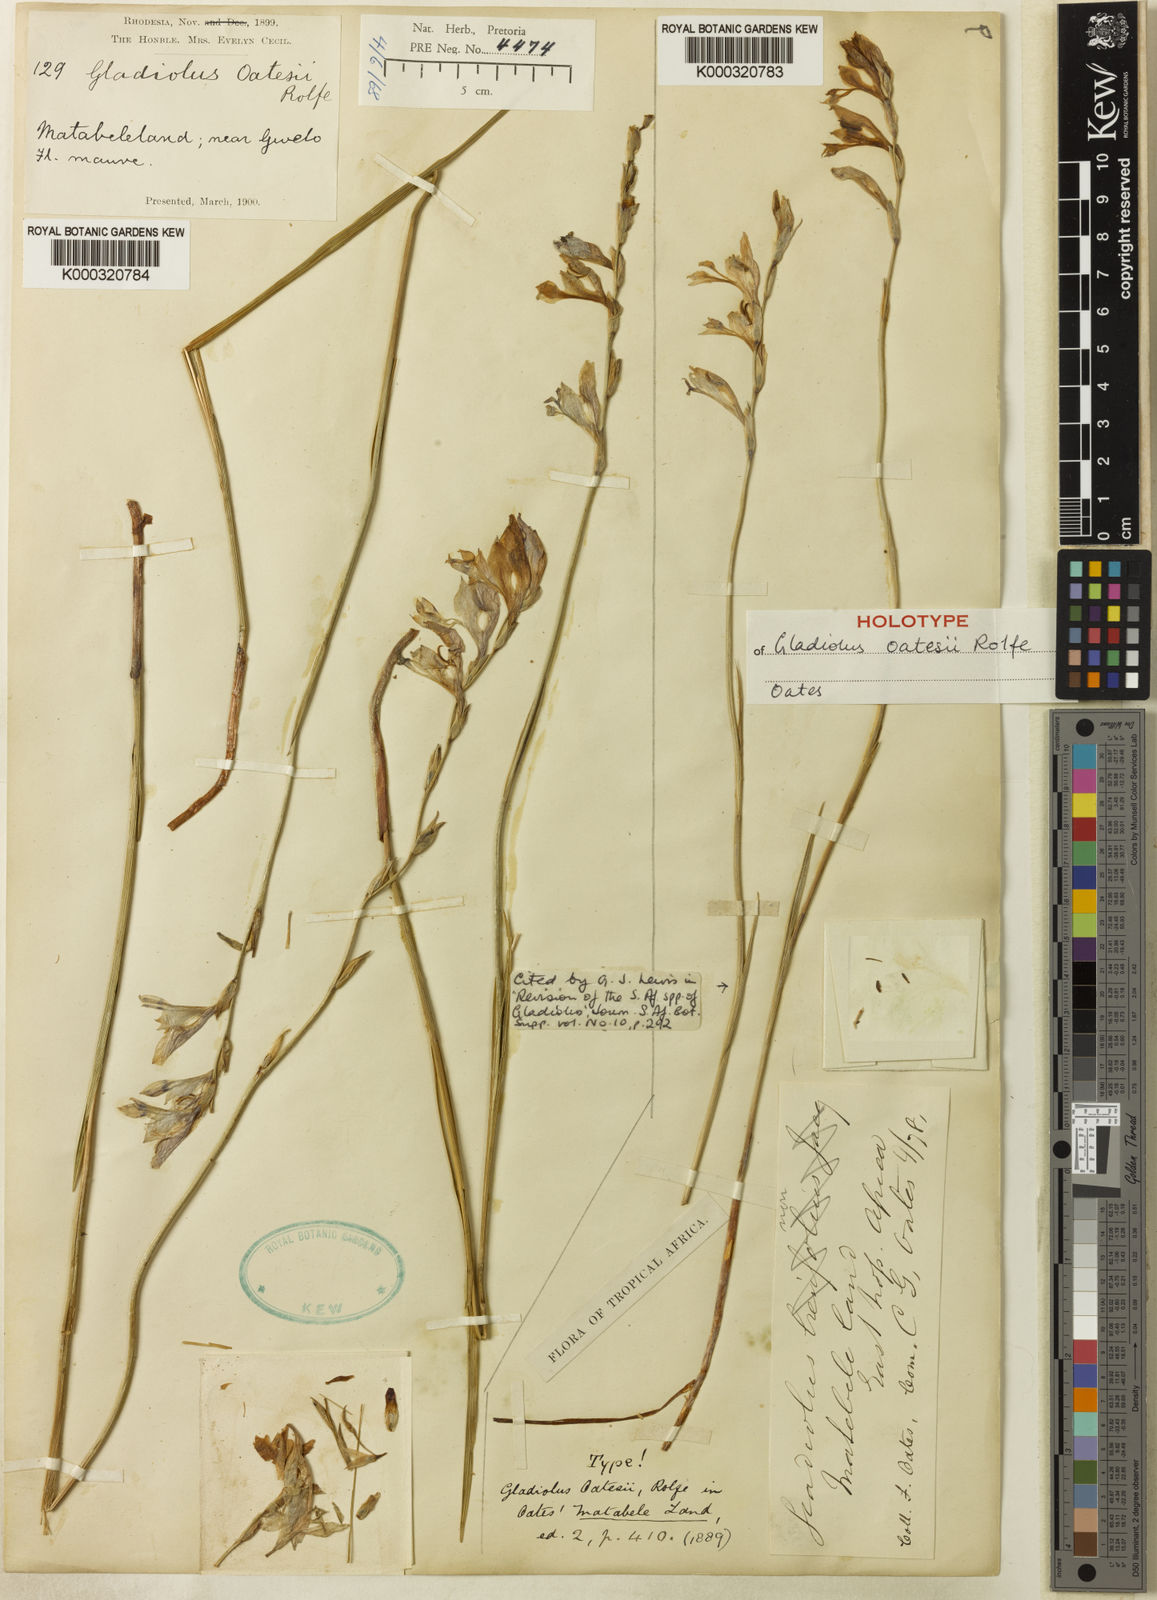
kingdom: Plantae
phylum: Tracheophyta
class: Liliopsida
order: Asparagales
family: Iridaceae
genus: Gladiolus
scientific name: Gladiolus unguiculatus
